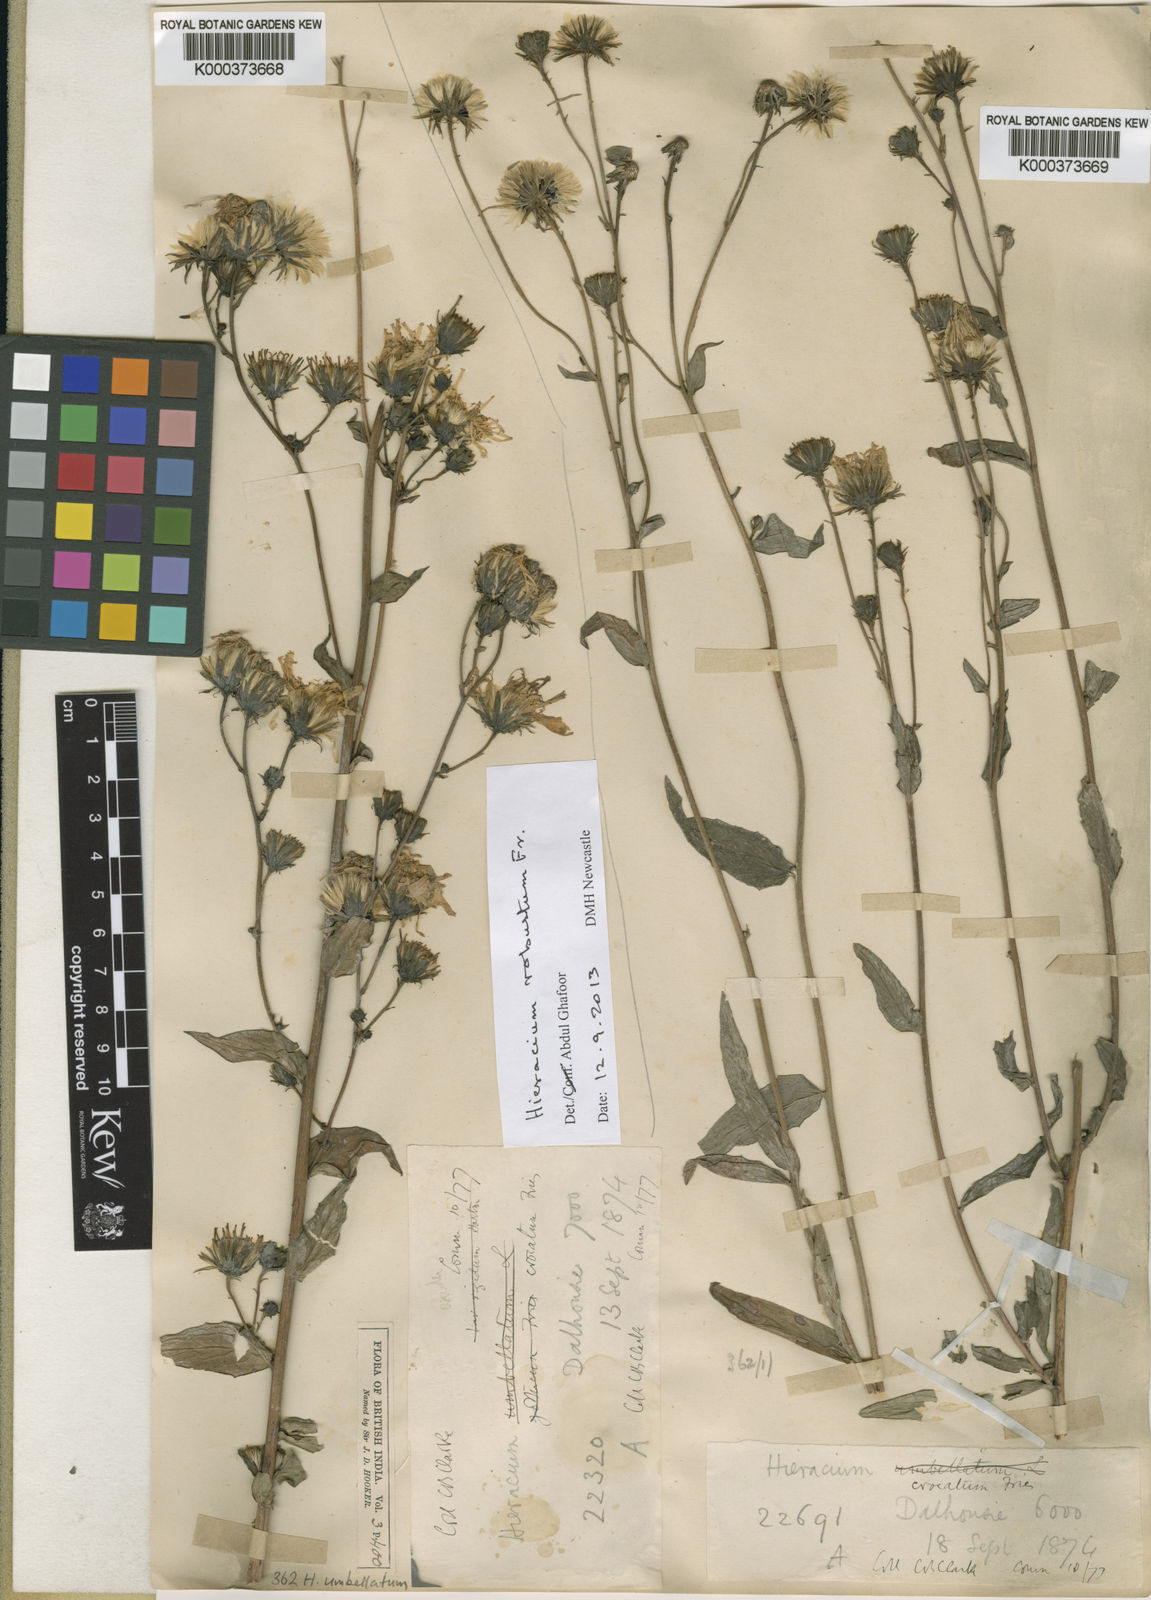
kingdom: Plantae
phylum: Tracheophyta
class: Magnoliopsida
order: Asterales
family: Asteraceae
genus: Hieracium
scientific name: Hieracium robustum
